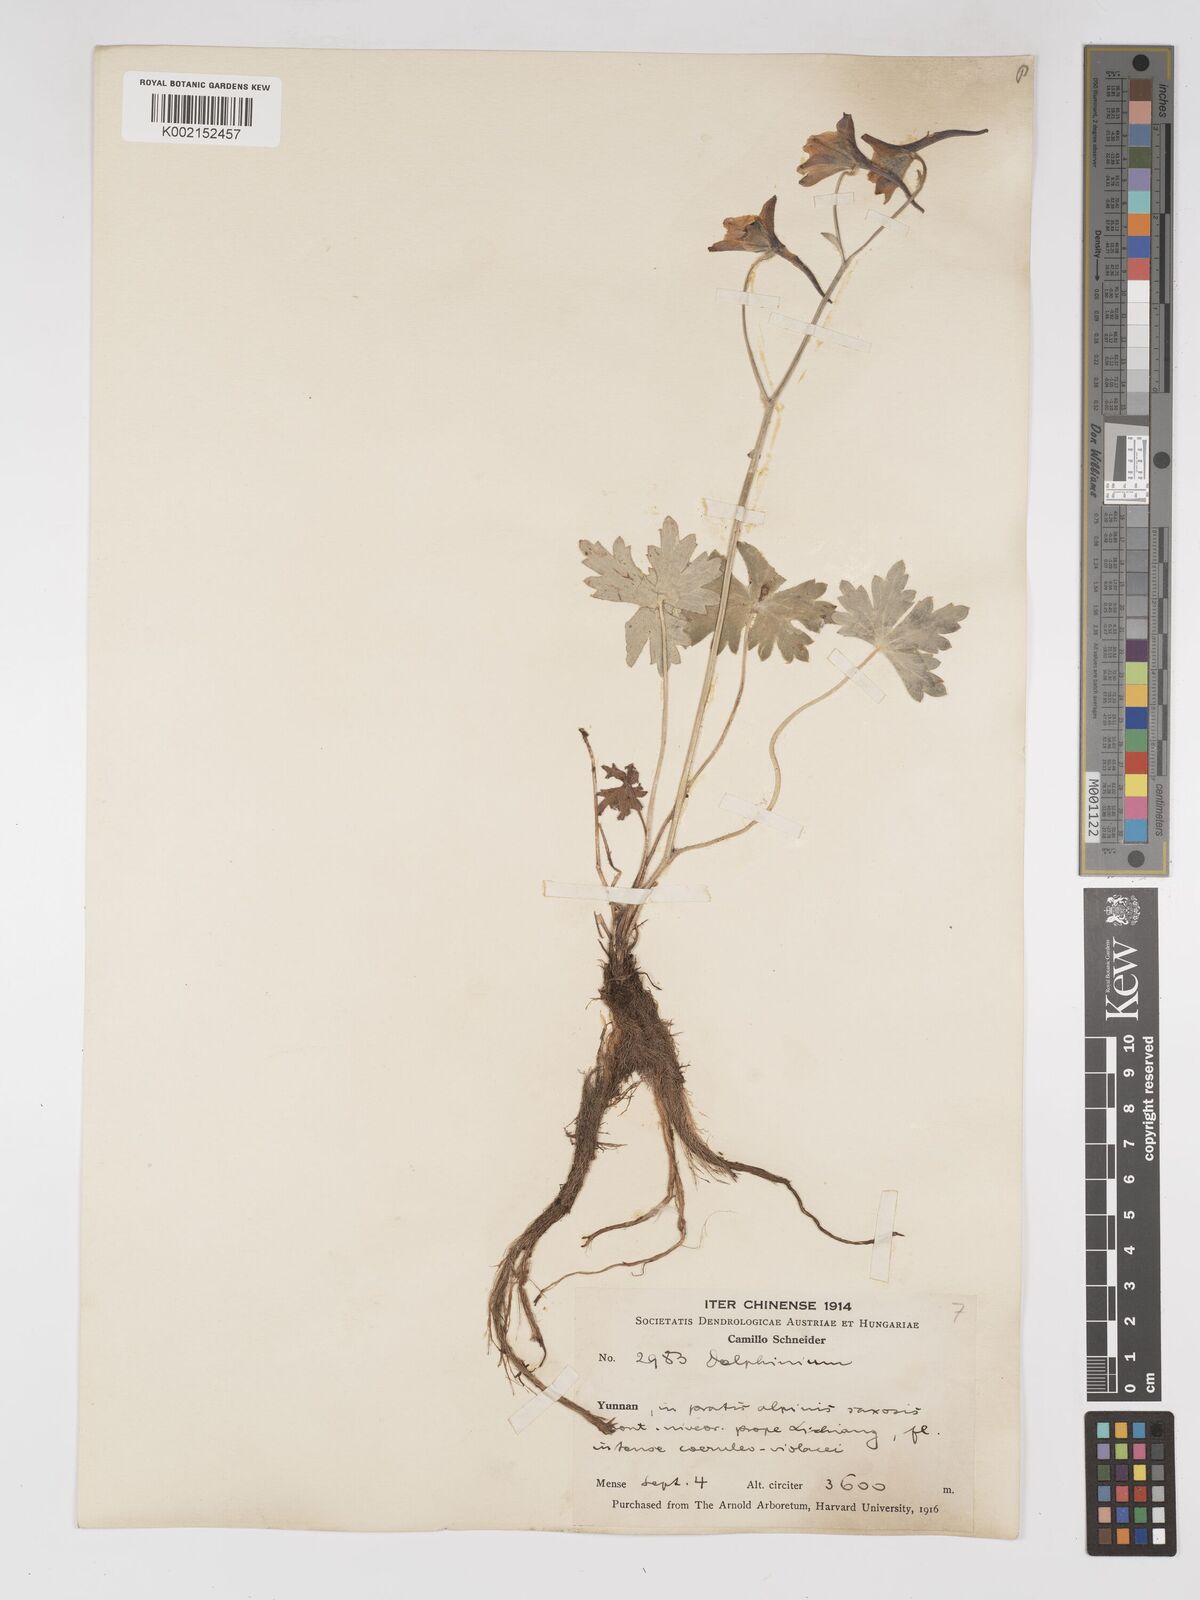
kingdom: Plantae
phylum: Tracheophyta
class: Magnoliopsida
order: Ranunculales
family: Ranunculaceae
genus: Delphinium
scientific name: Delphinium ceratophorum
